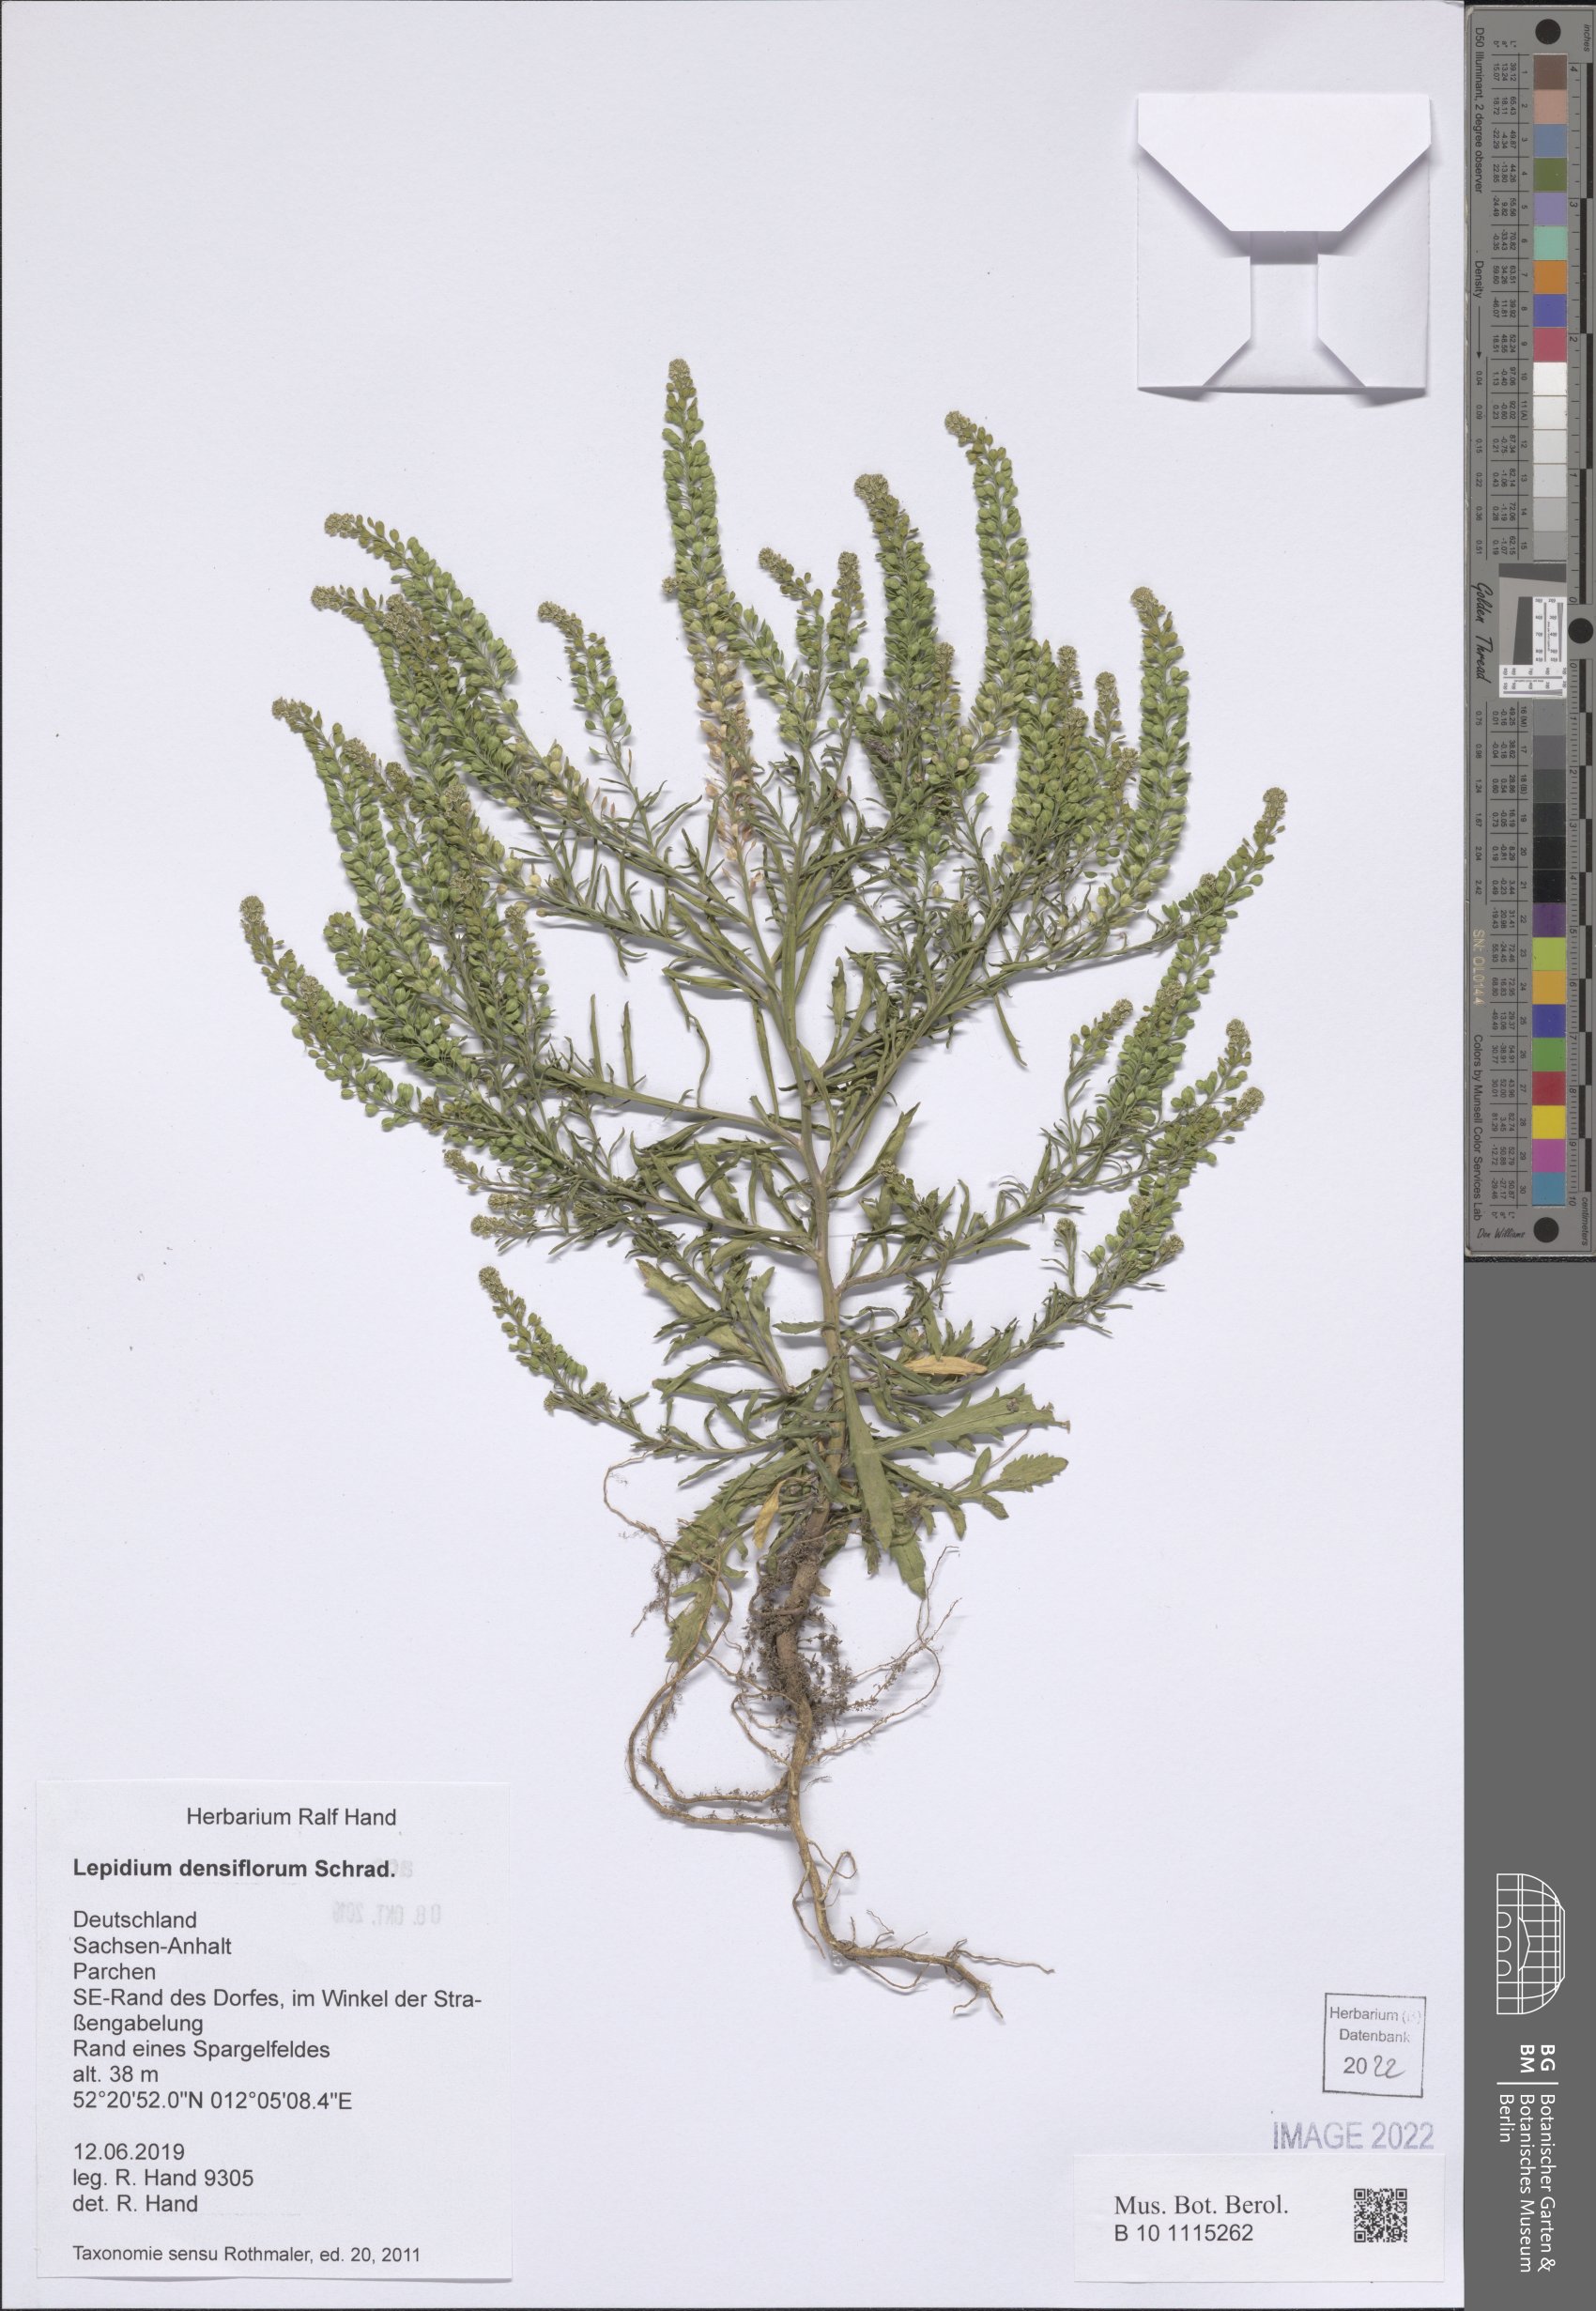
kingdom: Plantae
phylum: Tracheophyta
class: Magnoliopsida
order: Brassicales
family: Brassicaceae
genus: Lepidium
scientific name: Lepidium densiflorum
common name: Miner's pepperwort
